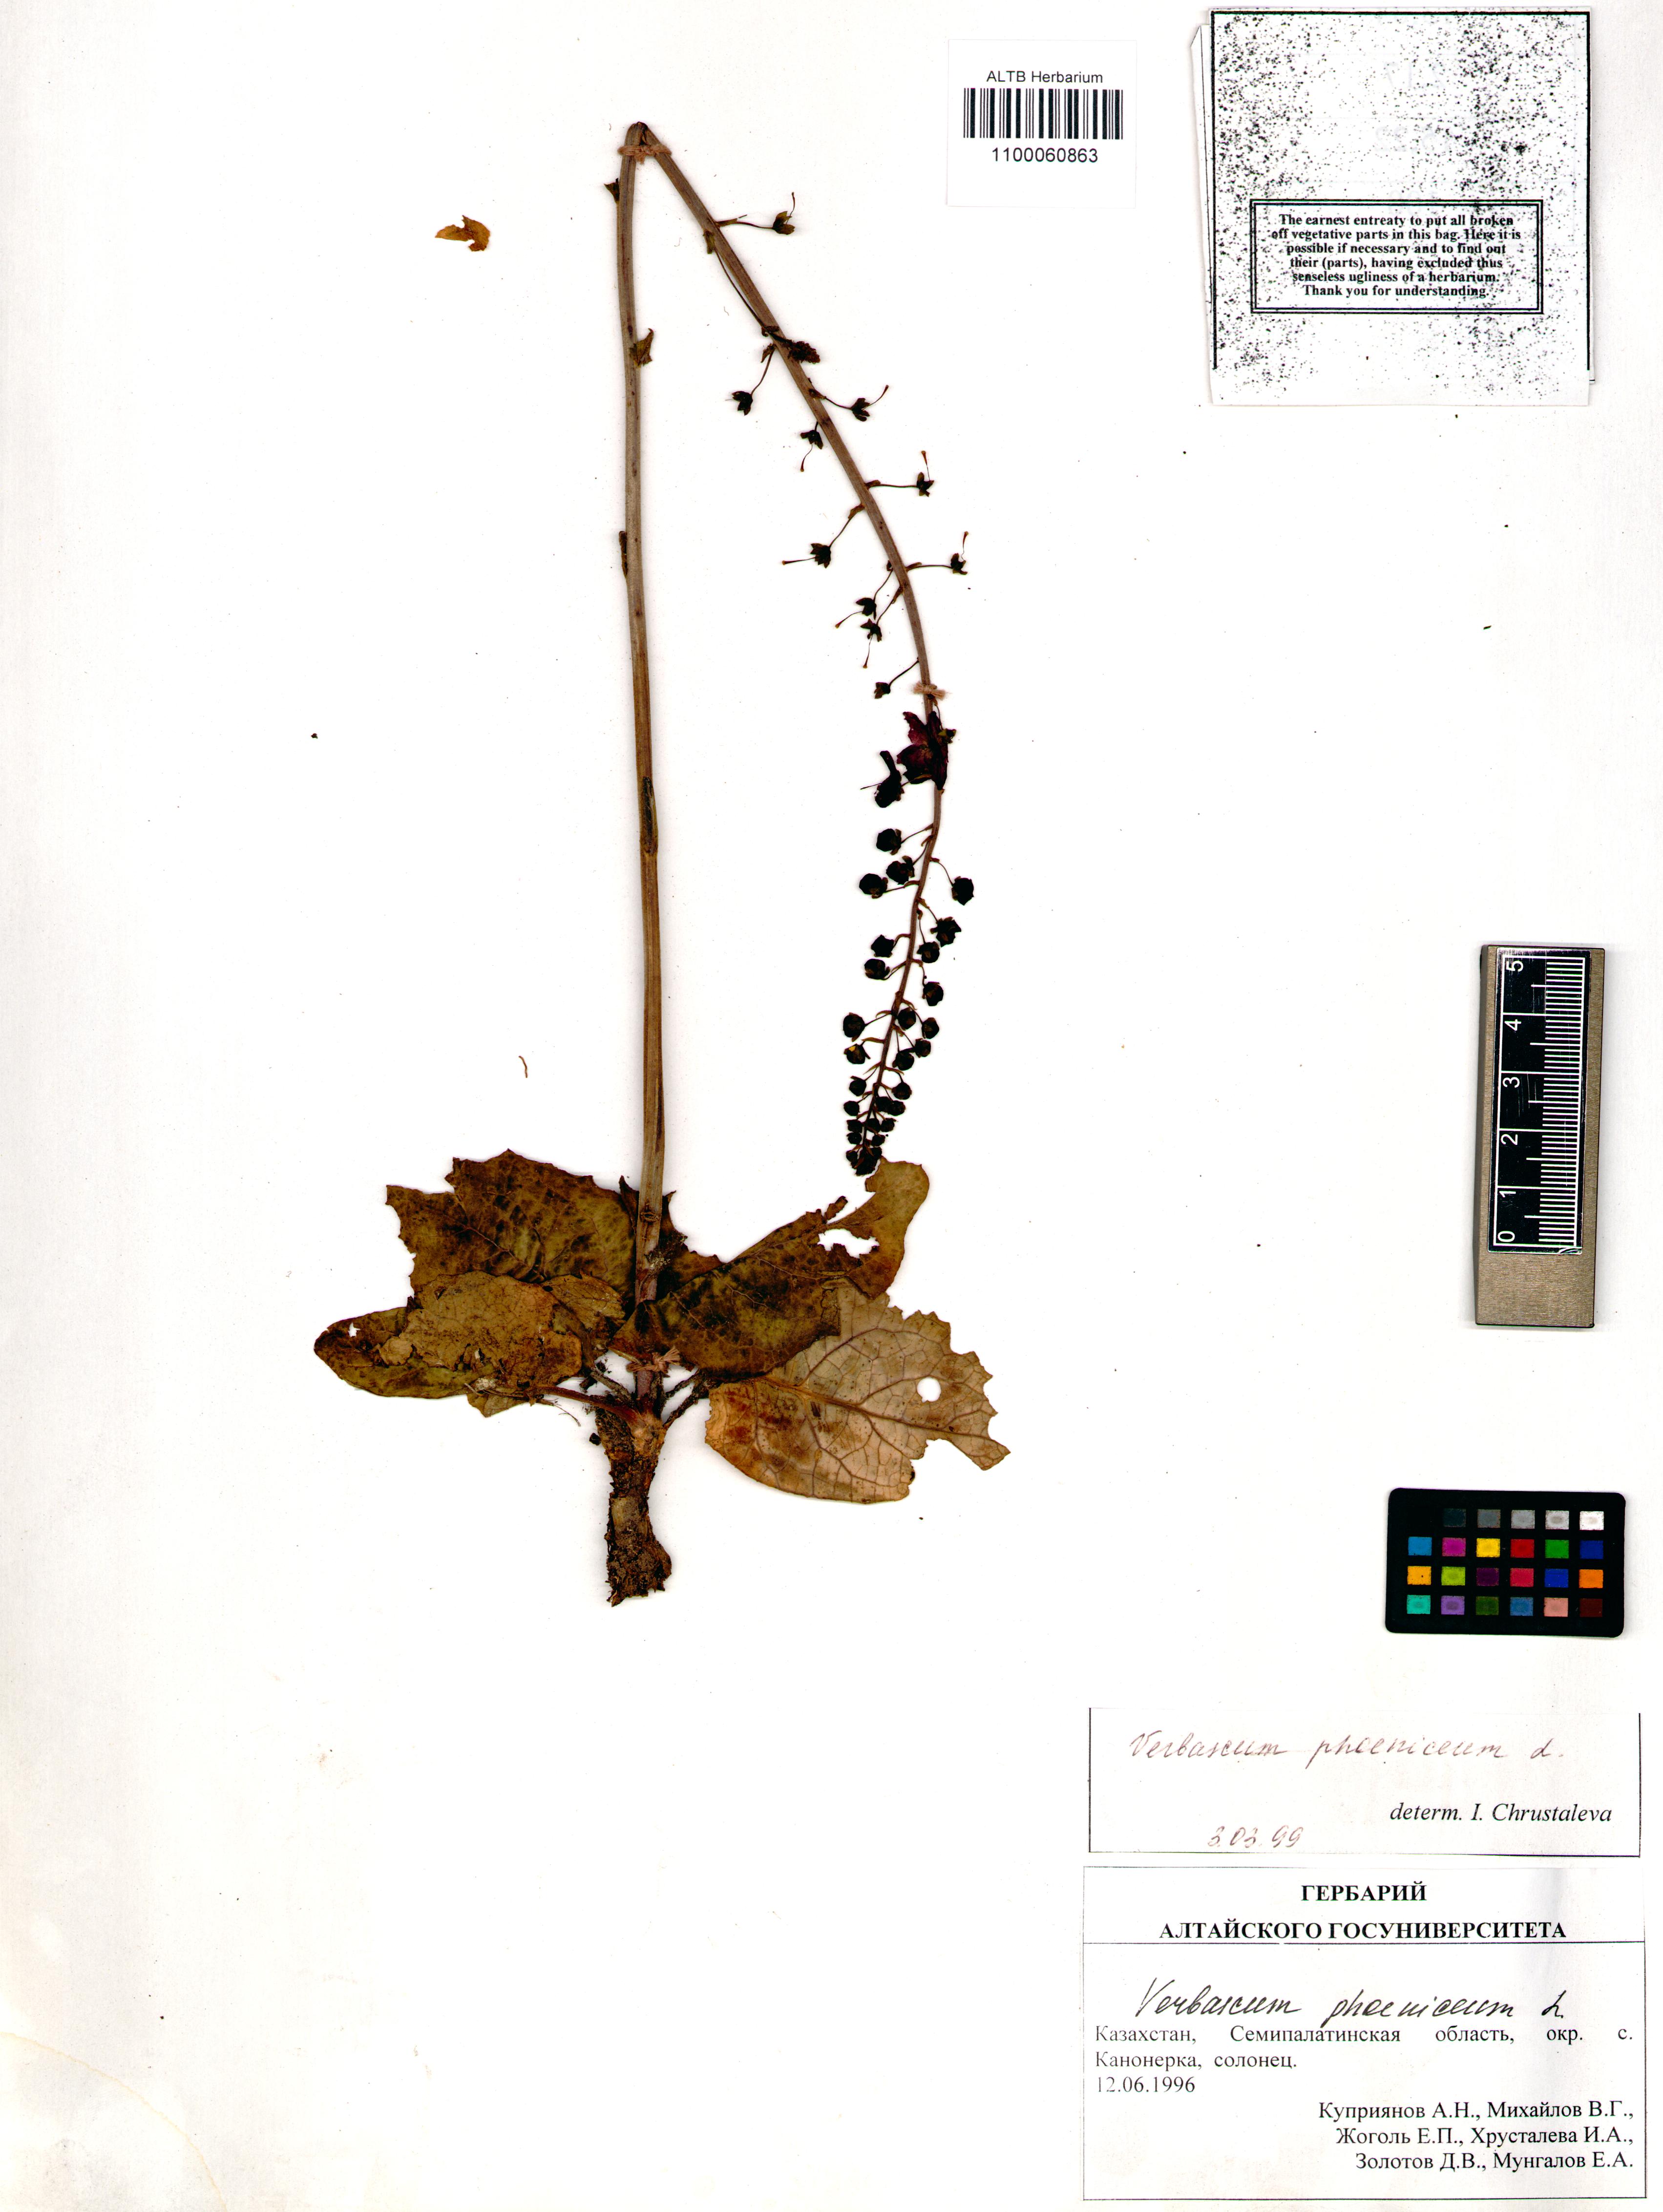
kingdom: Plantae
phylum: Tracheophyta
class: Magnoliopsida
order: Lamiales
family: Scrophulariaceae
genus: Verbascum
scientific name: Verbascum phoeniceum
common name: Purple mullein
